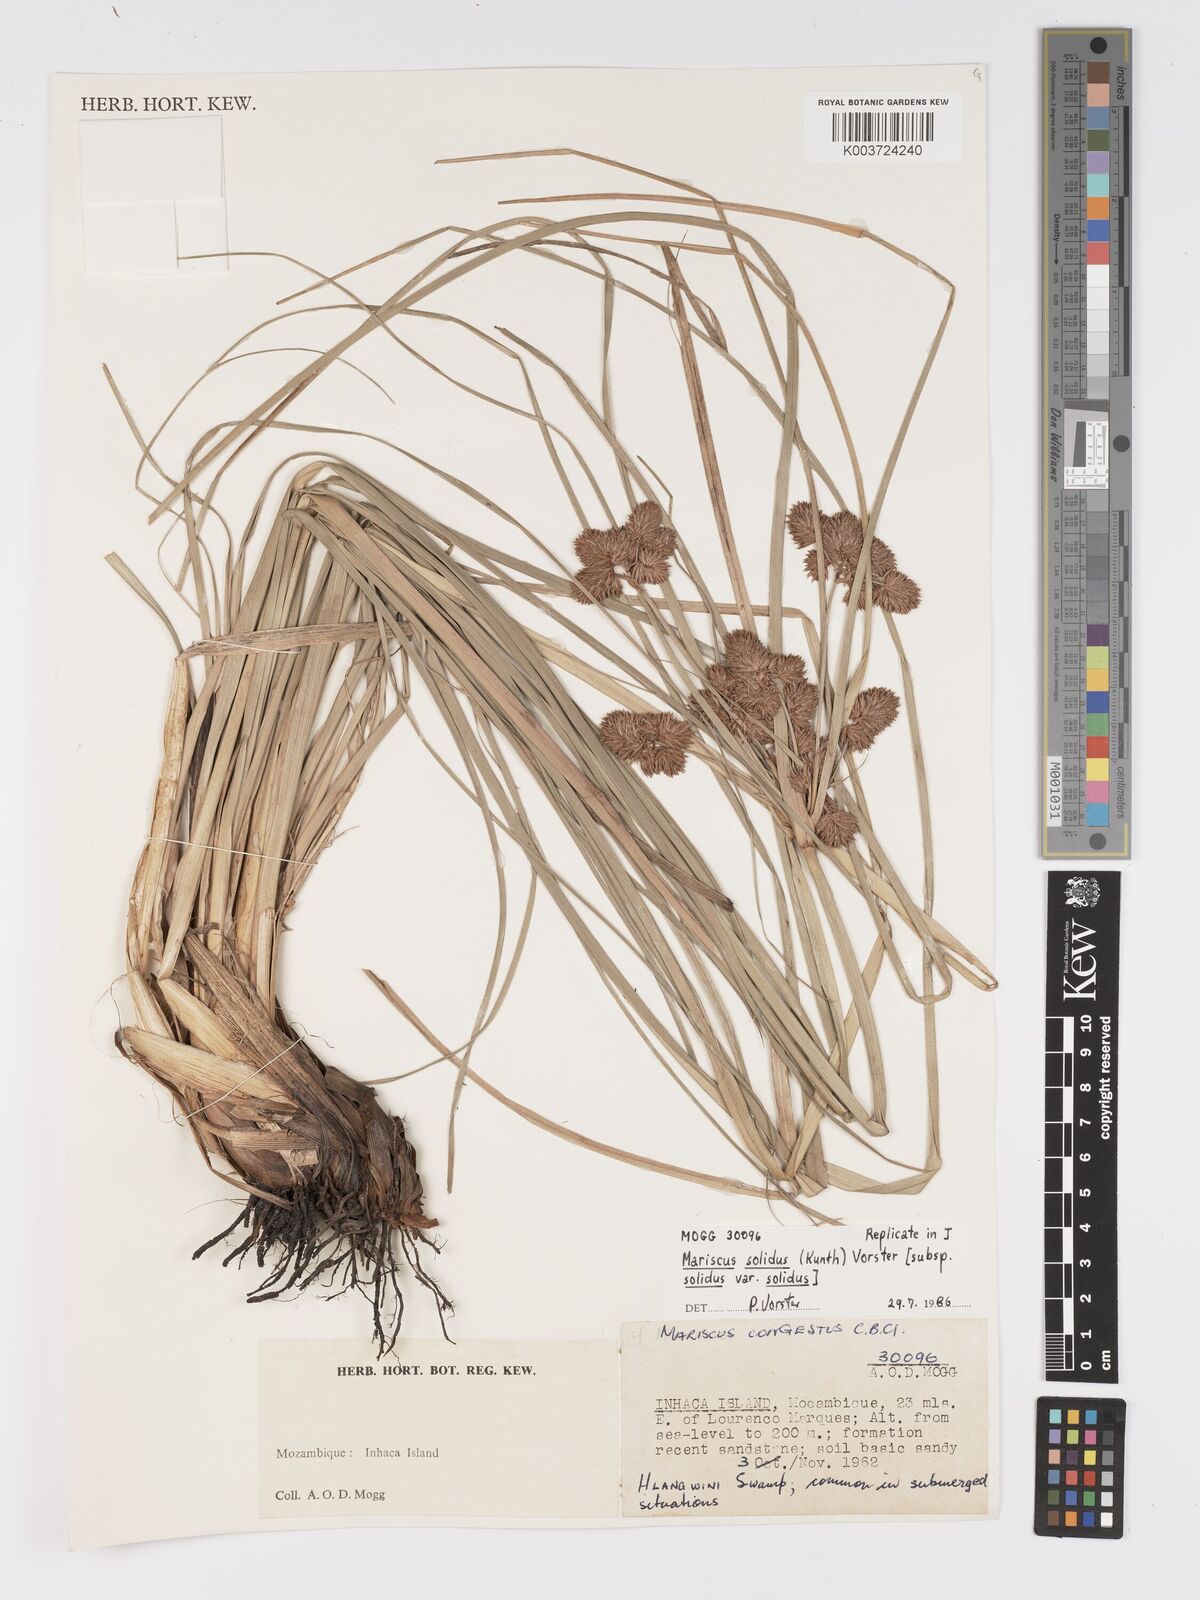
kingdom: Plantae
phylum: Tracheophyta
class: Liliopsida
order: Poales
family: Cyperaceae
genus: Cyperus
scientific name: Cyperus solidus
